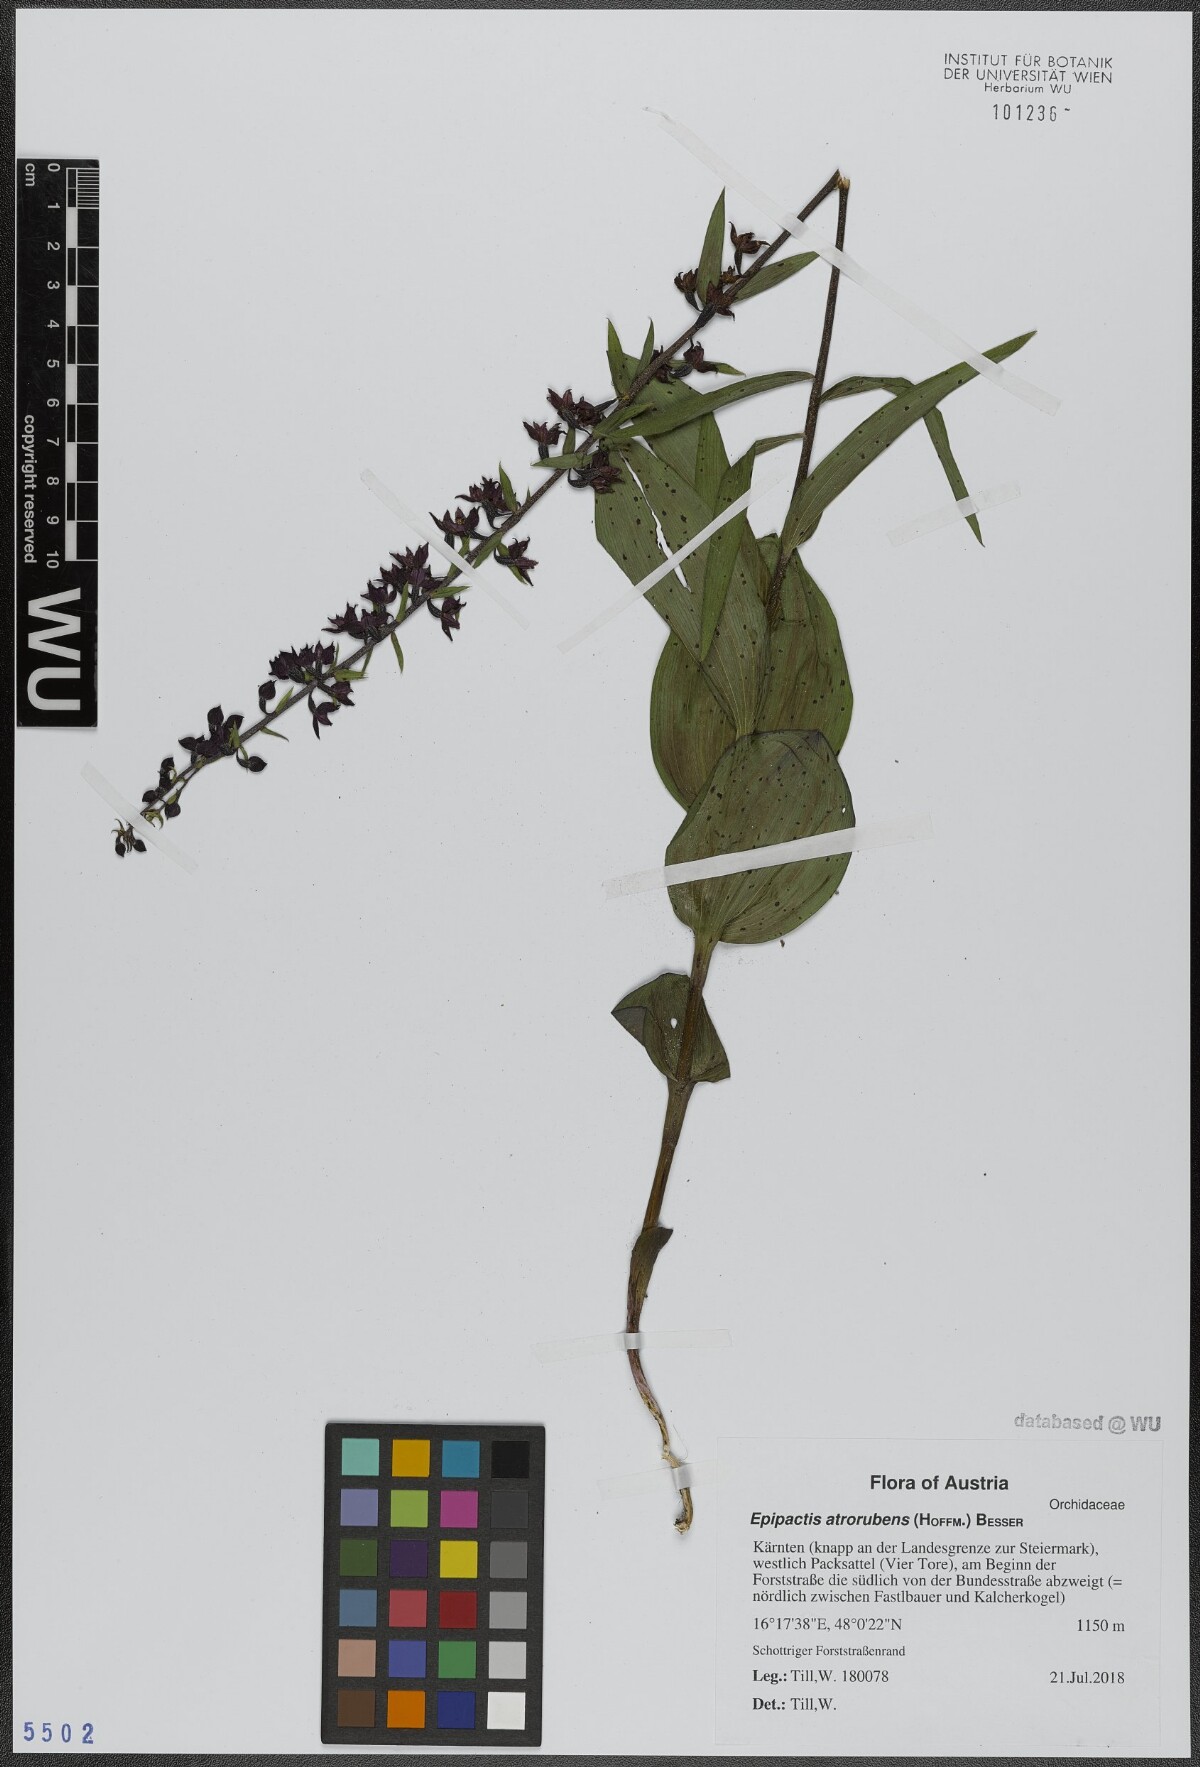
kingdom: Plantae
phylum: Tracheophyta
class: Liliopsida
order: Asparagales
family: Orchidaceae
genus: Epipactis
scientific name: Epipactis atrorubens
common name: Dark-red helleborine
